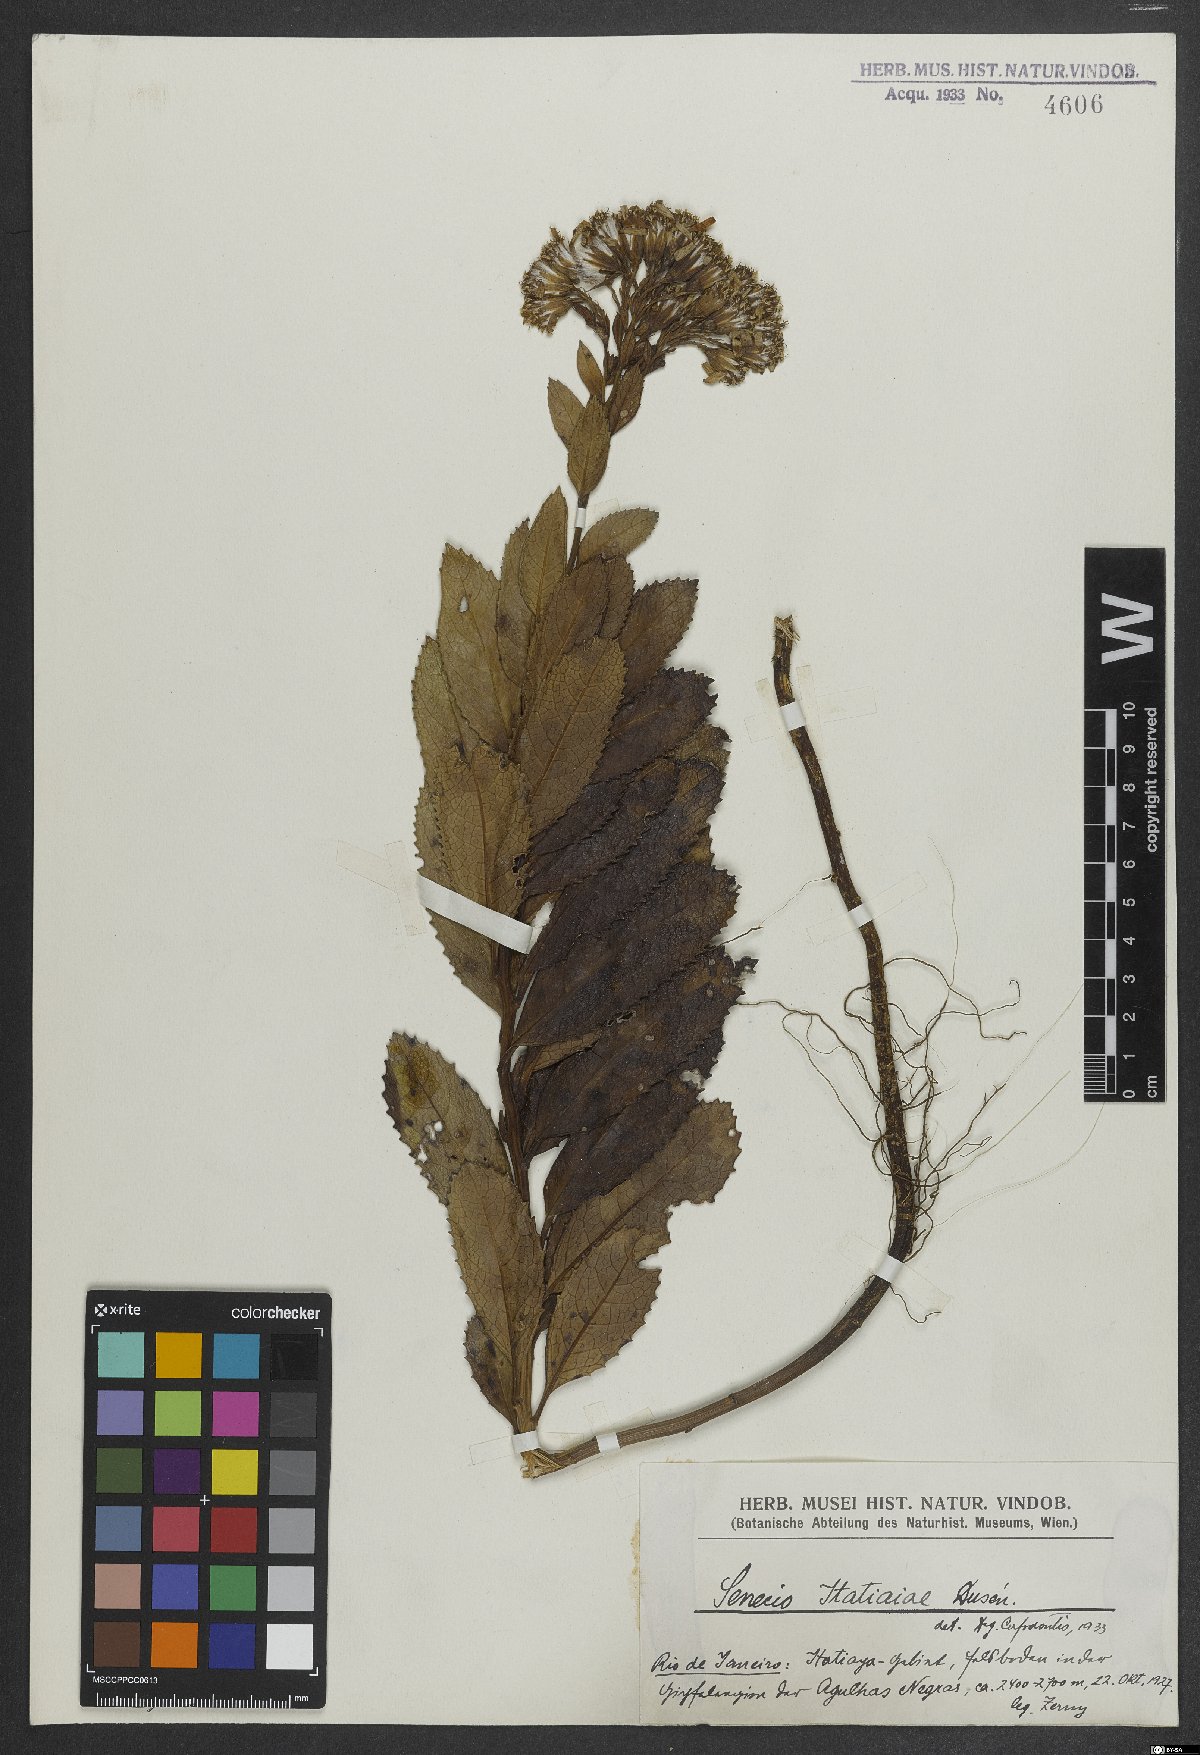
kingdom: Plantae
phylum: Tracheophyta
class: Magnoliopsida
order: Asterales
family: Asteraceae
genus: Graphistylis
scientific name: Graphistylis itatiaiae
